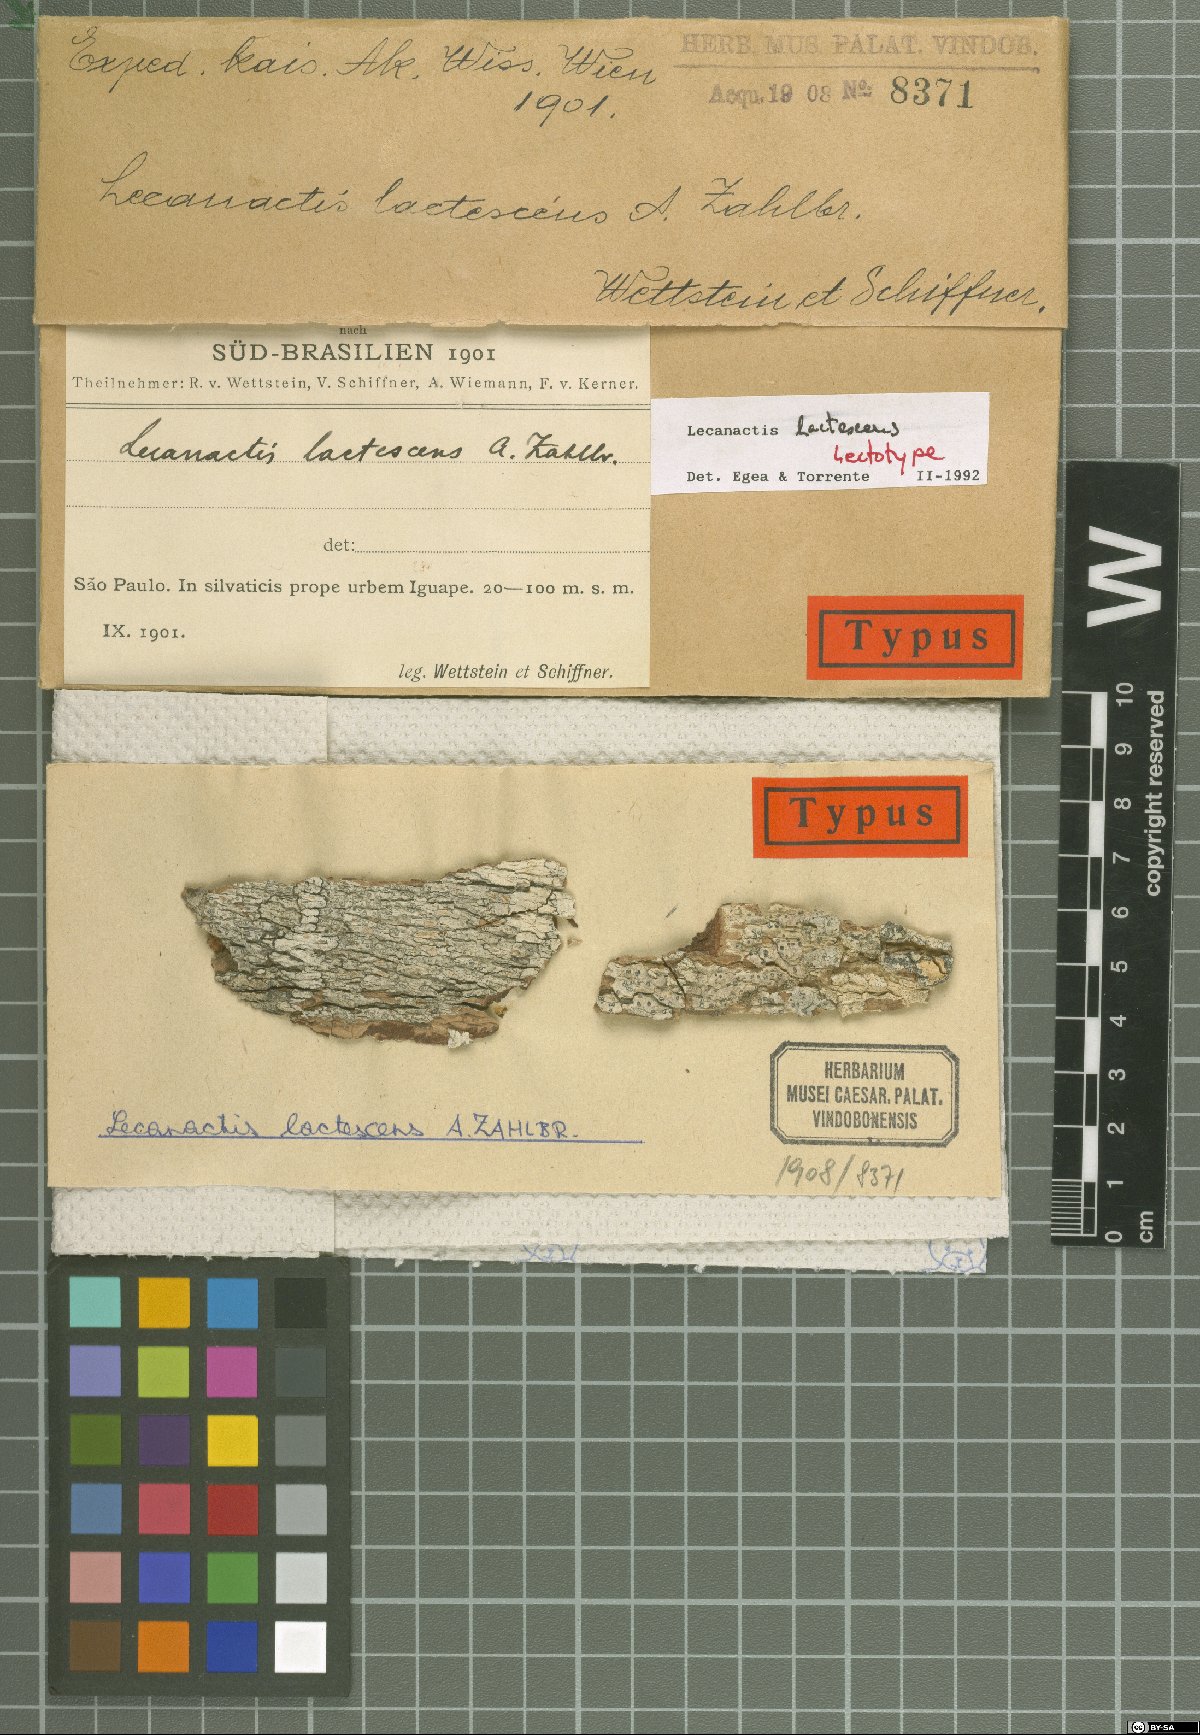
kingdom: Fungi
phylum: Ascomycota
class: Arthoniomycetes
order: Arthoniales
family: Roccellaceae
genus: Lecanactis
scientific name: Lecanactis epileuca
